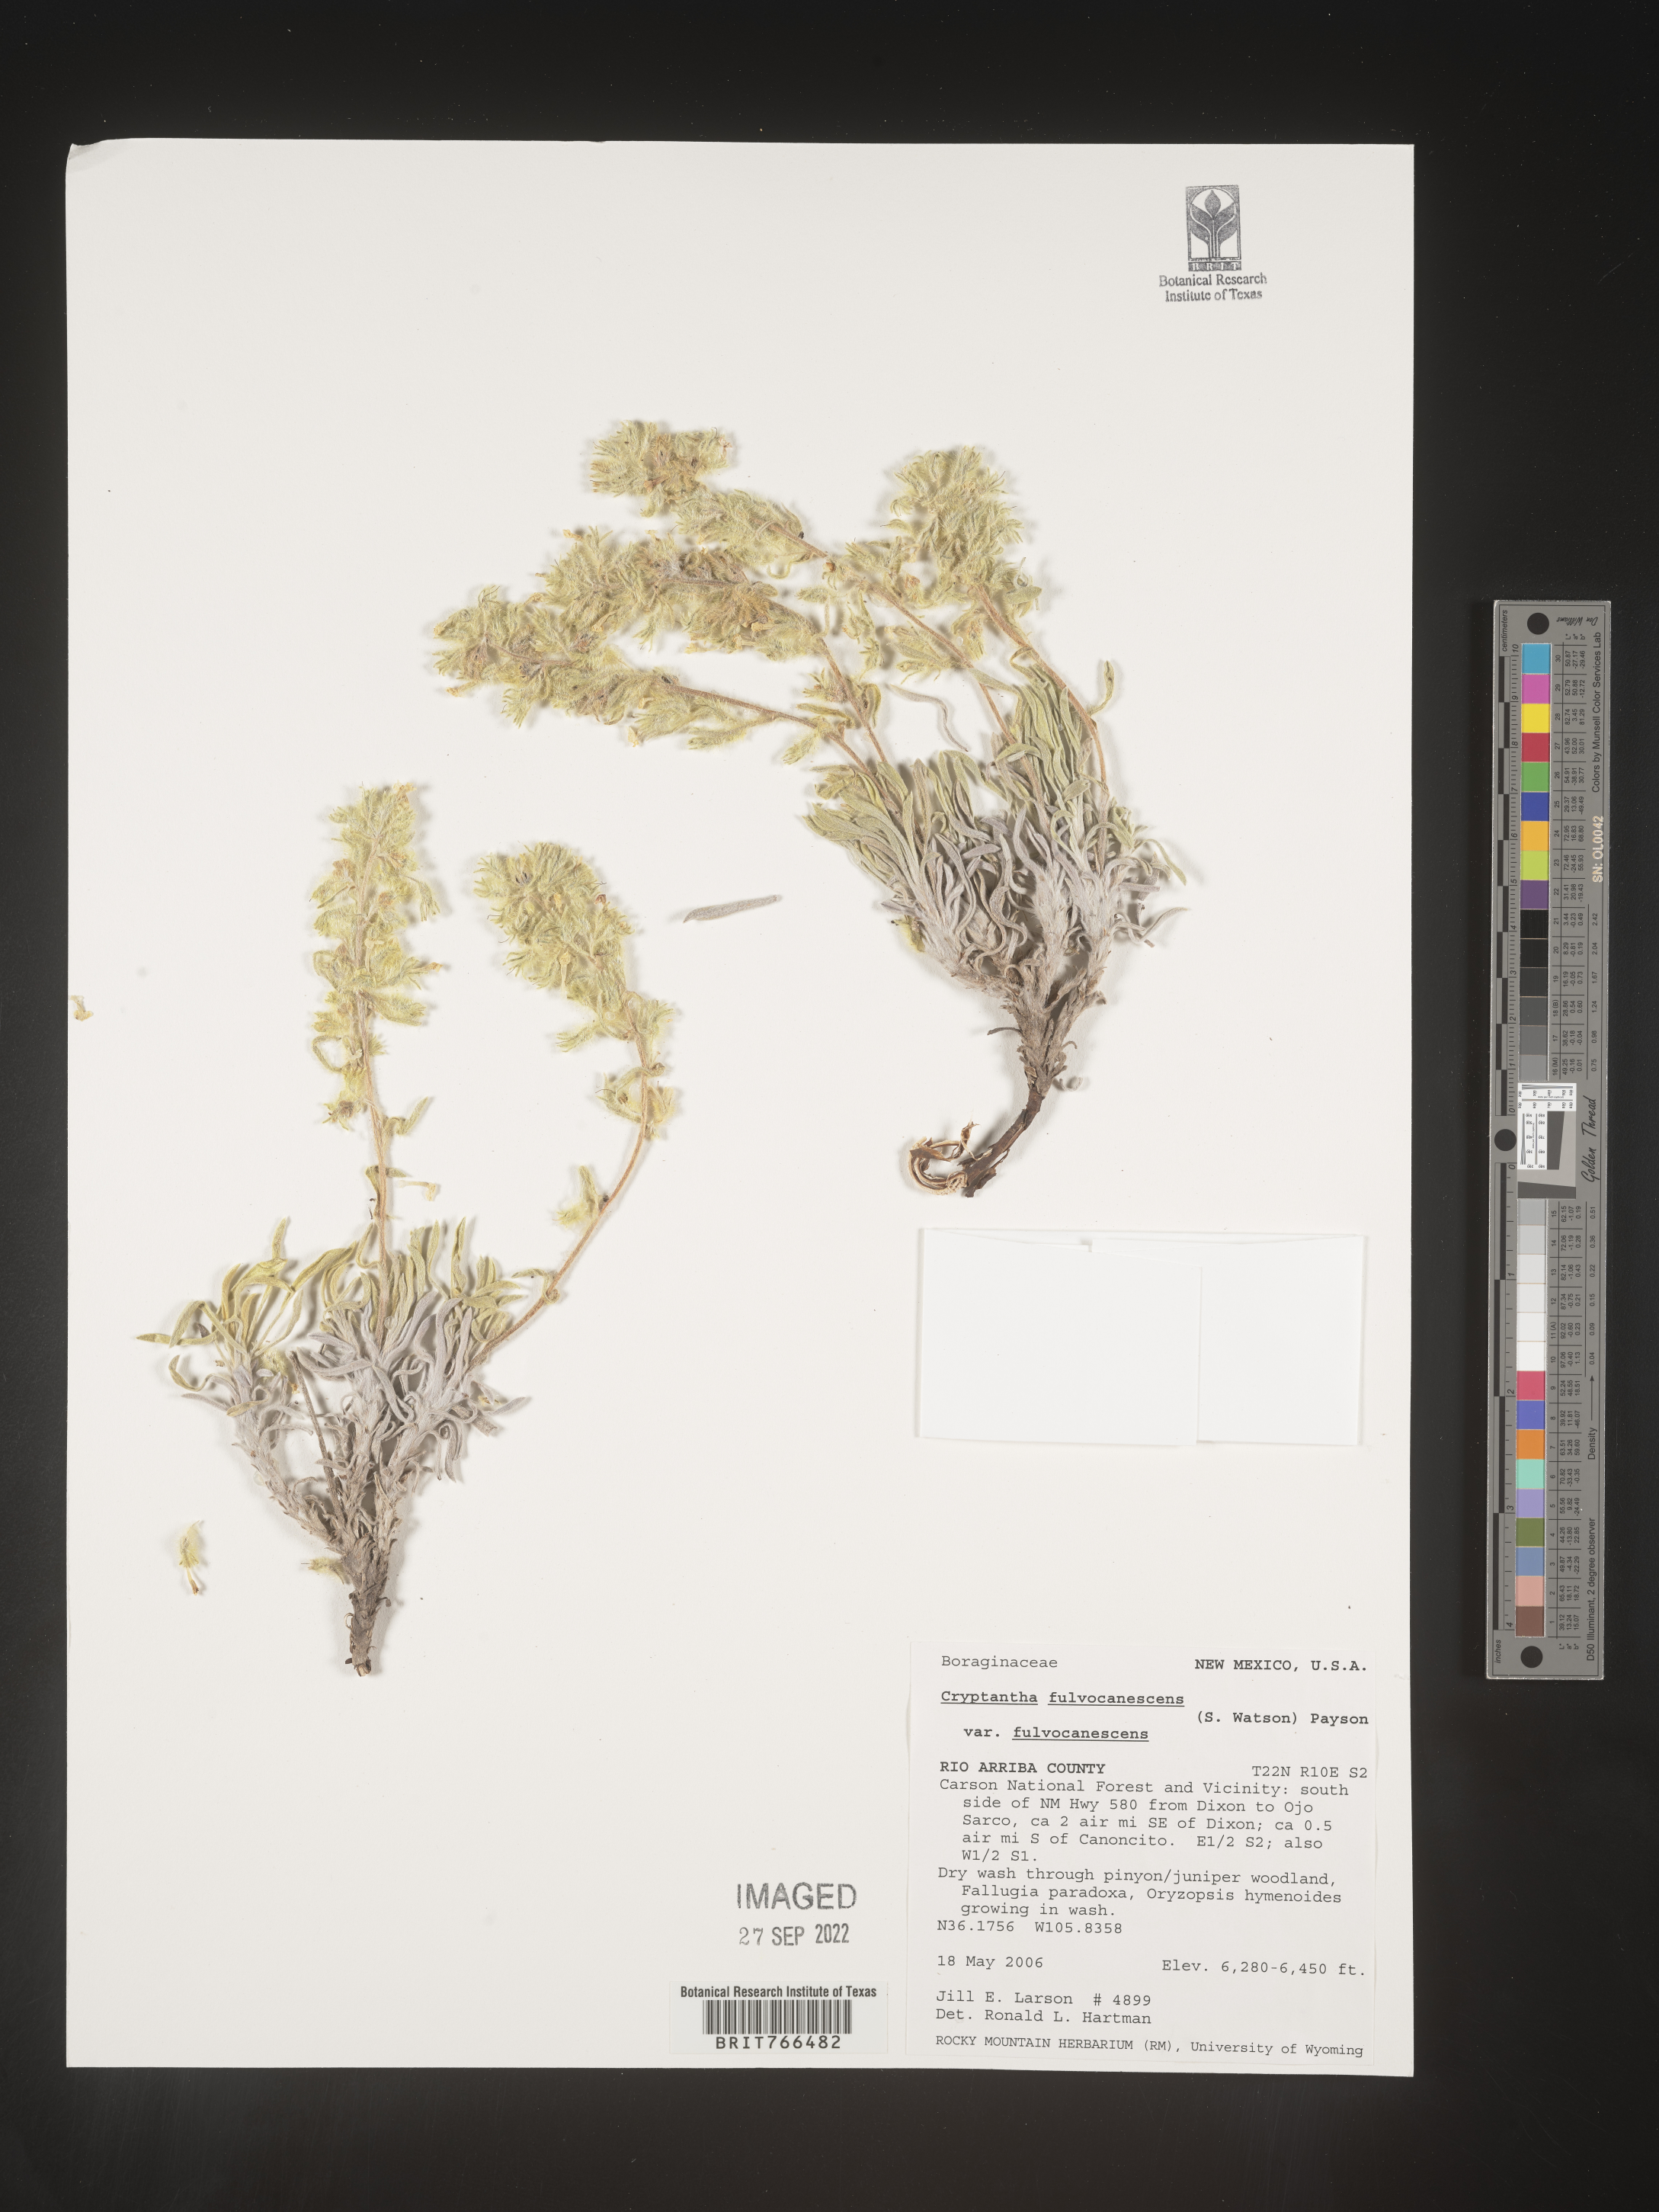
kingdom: Plantae
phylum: Tracheophyta
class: Magnoliopsida
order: Boraginales
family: Boraginaceae
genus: Oreocarya
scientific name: Oreocarya fulvocanescens
